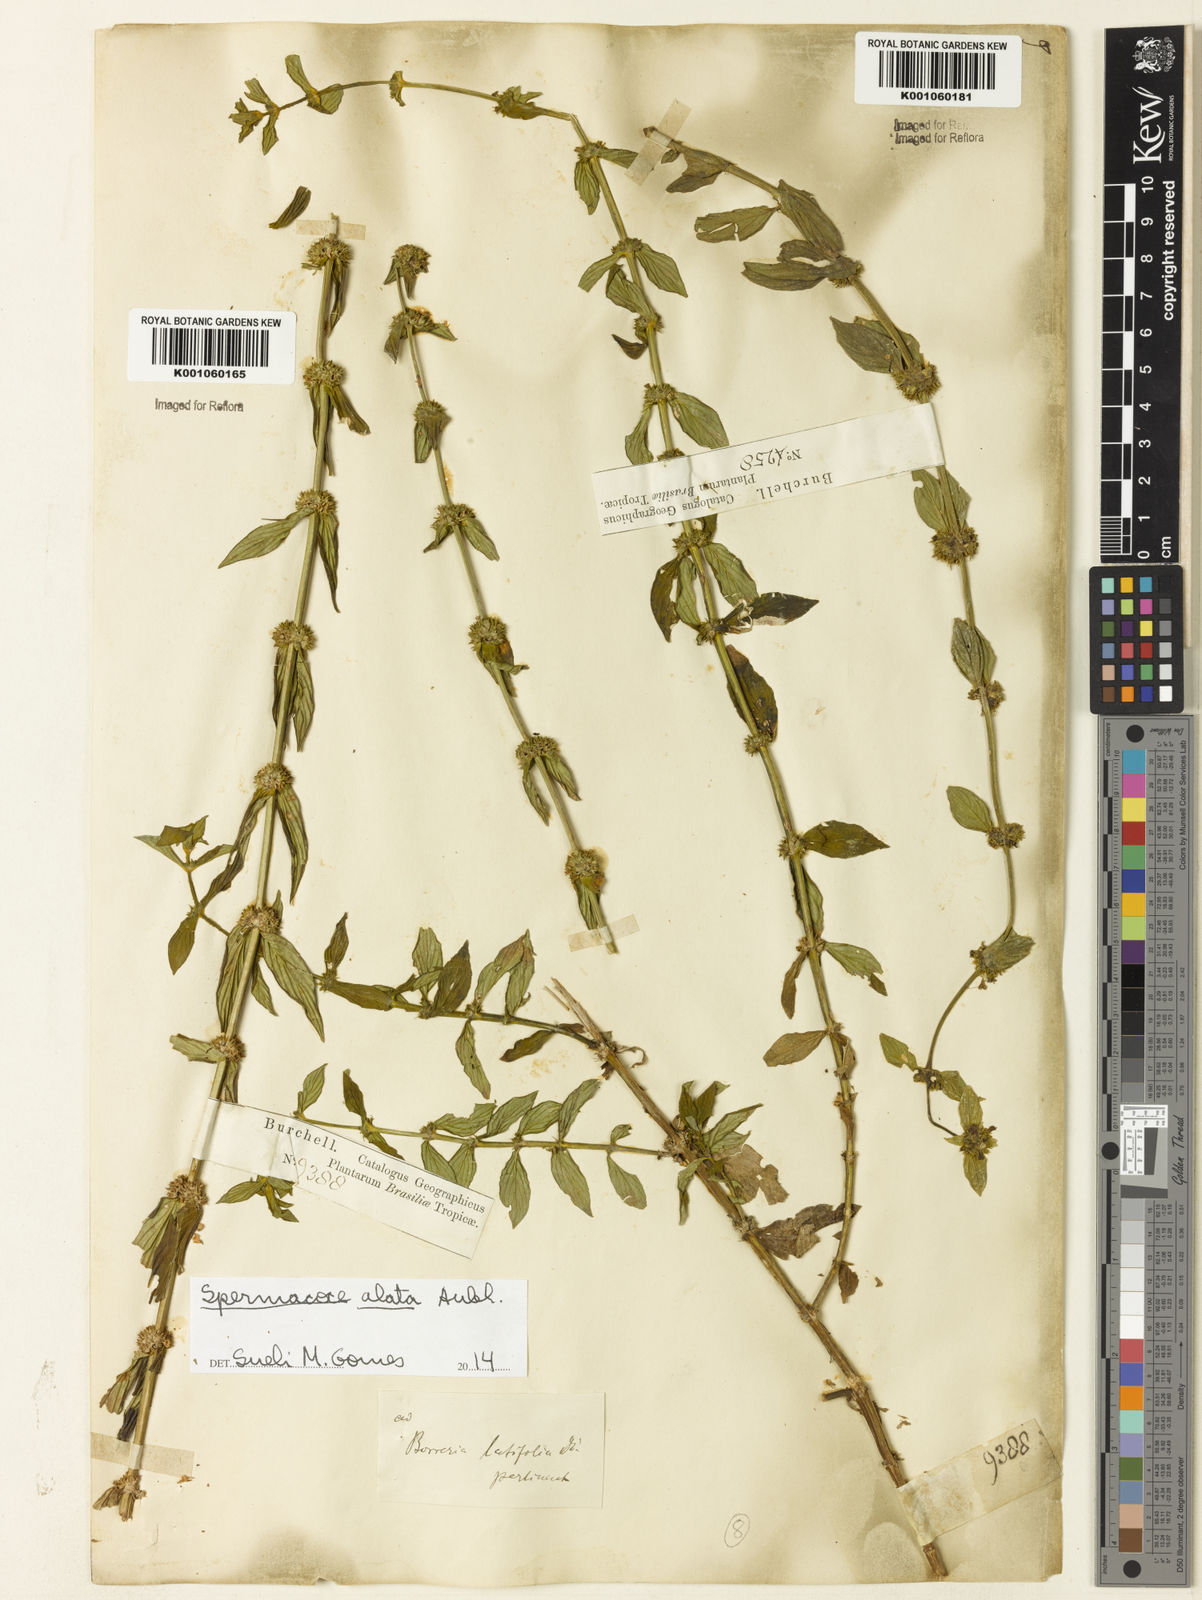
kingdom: Plantae
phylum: Tracheophyta
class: Magnoliopsida
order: Gentianales
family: Rubiaceae
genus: Spermacoce
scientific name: Spermacoce
